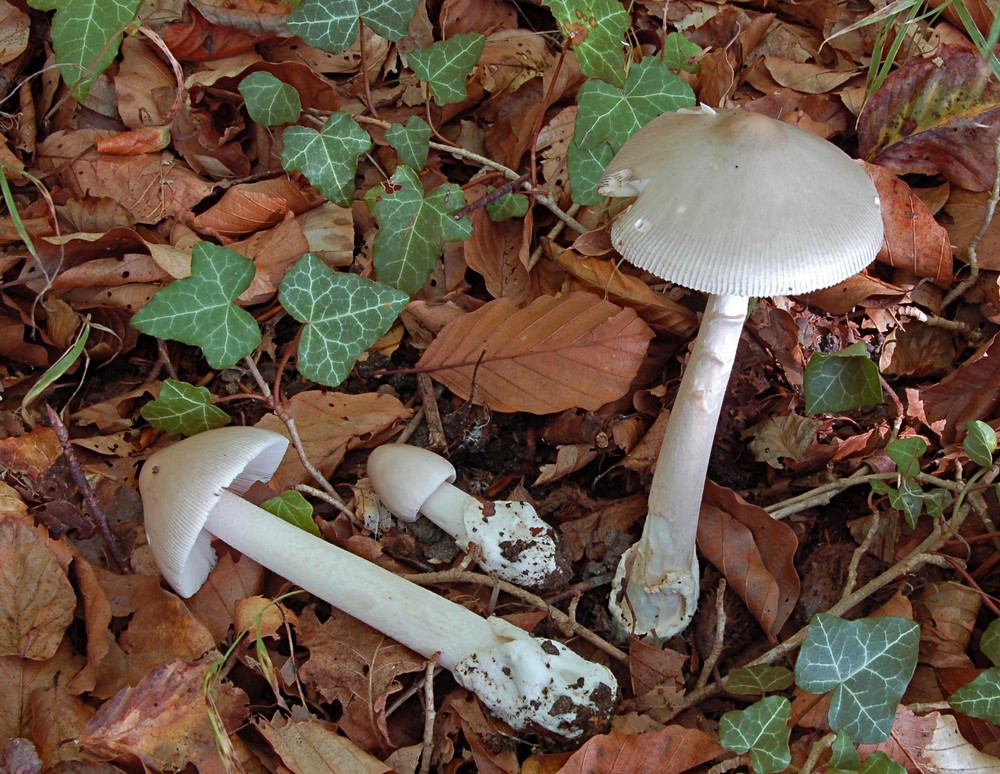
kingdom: Fungi
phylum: Basidiomycota
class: Agaricomycetes
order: Agaricales
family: Amanitaceae
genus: Amanita
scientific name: Amanita vaginata
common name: grå kam-fluesvamp
